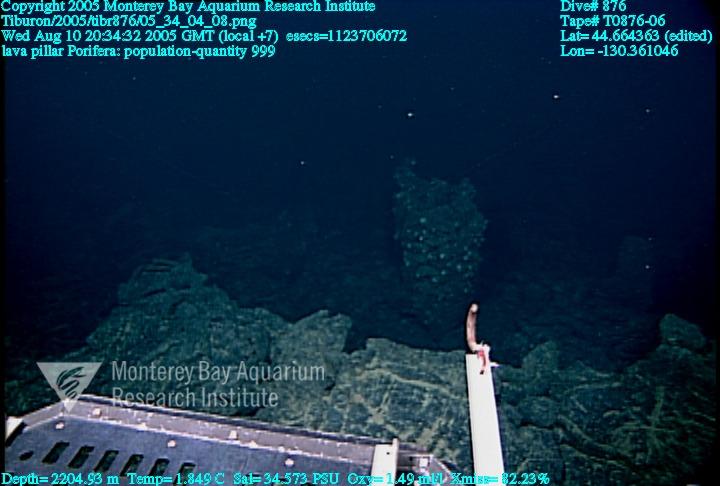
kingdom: Animalia
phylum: Porifera
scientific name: Porifera
